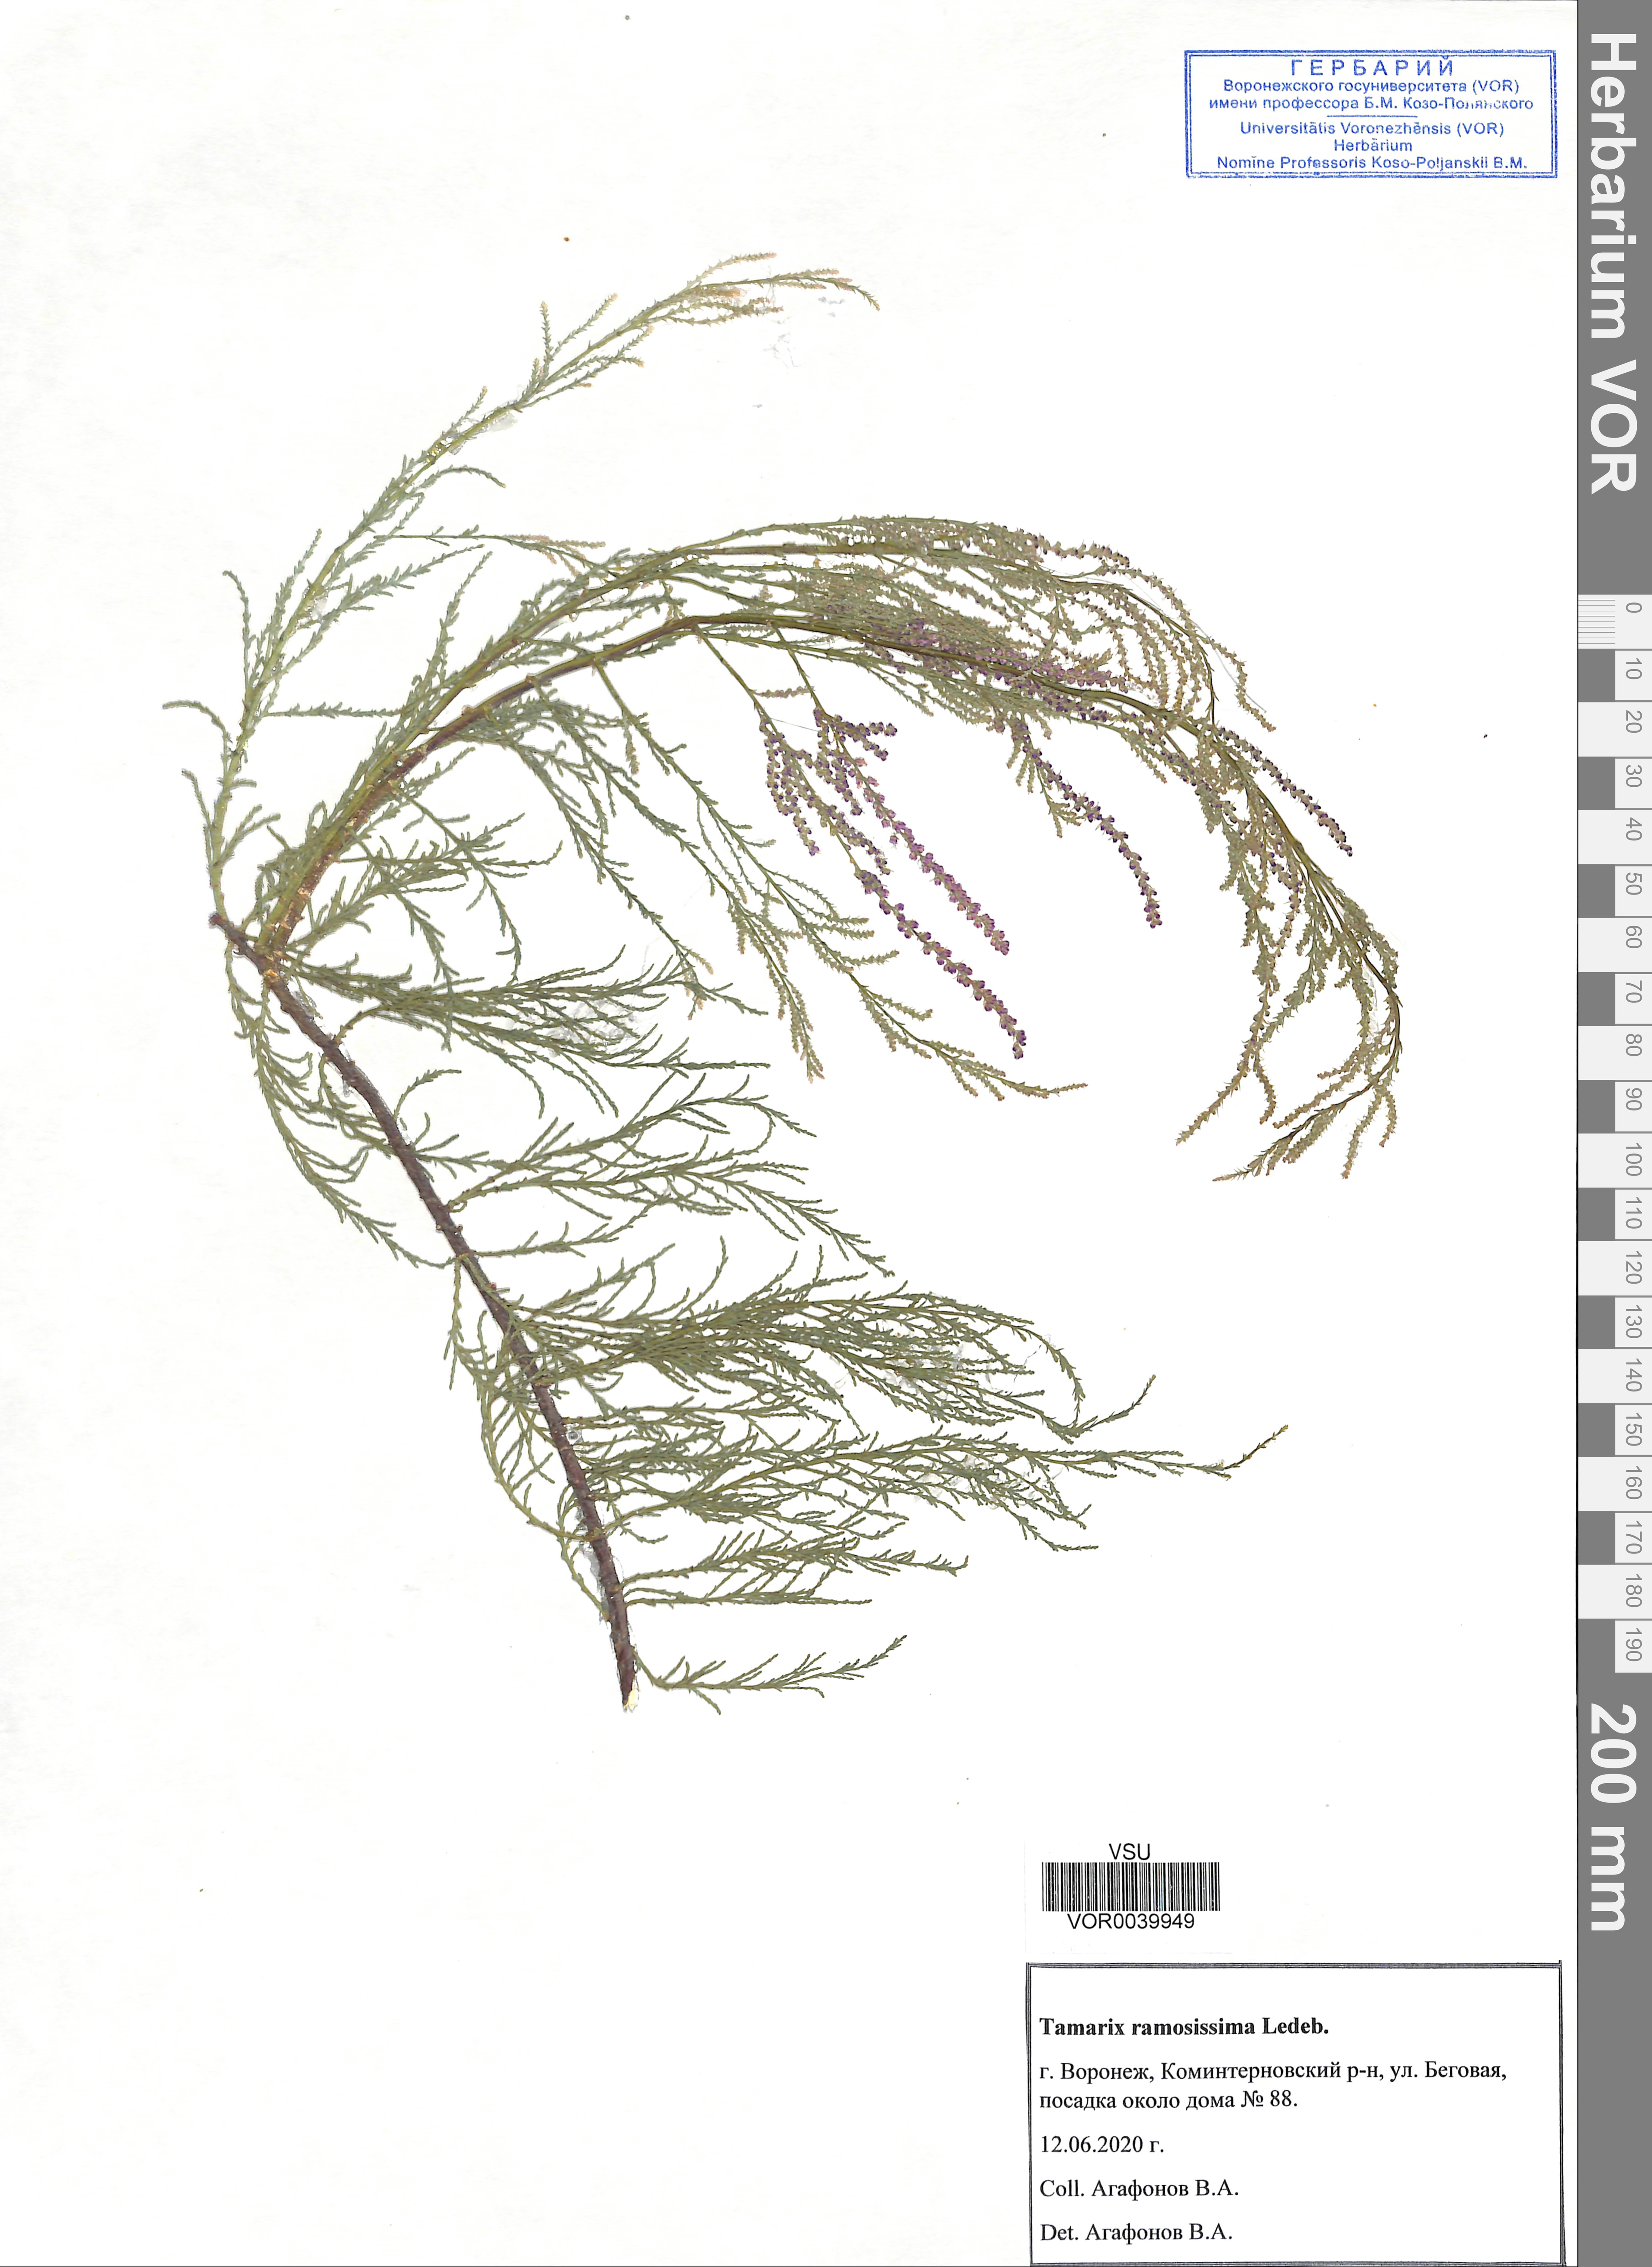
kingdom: Plantae
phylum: Tracheophyta
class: Magnoliopsida
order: Caryophyllales
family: Tamaricaceae
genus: Tamarix
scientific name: Tamarix ramosissima
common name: Pink tamarisk
